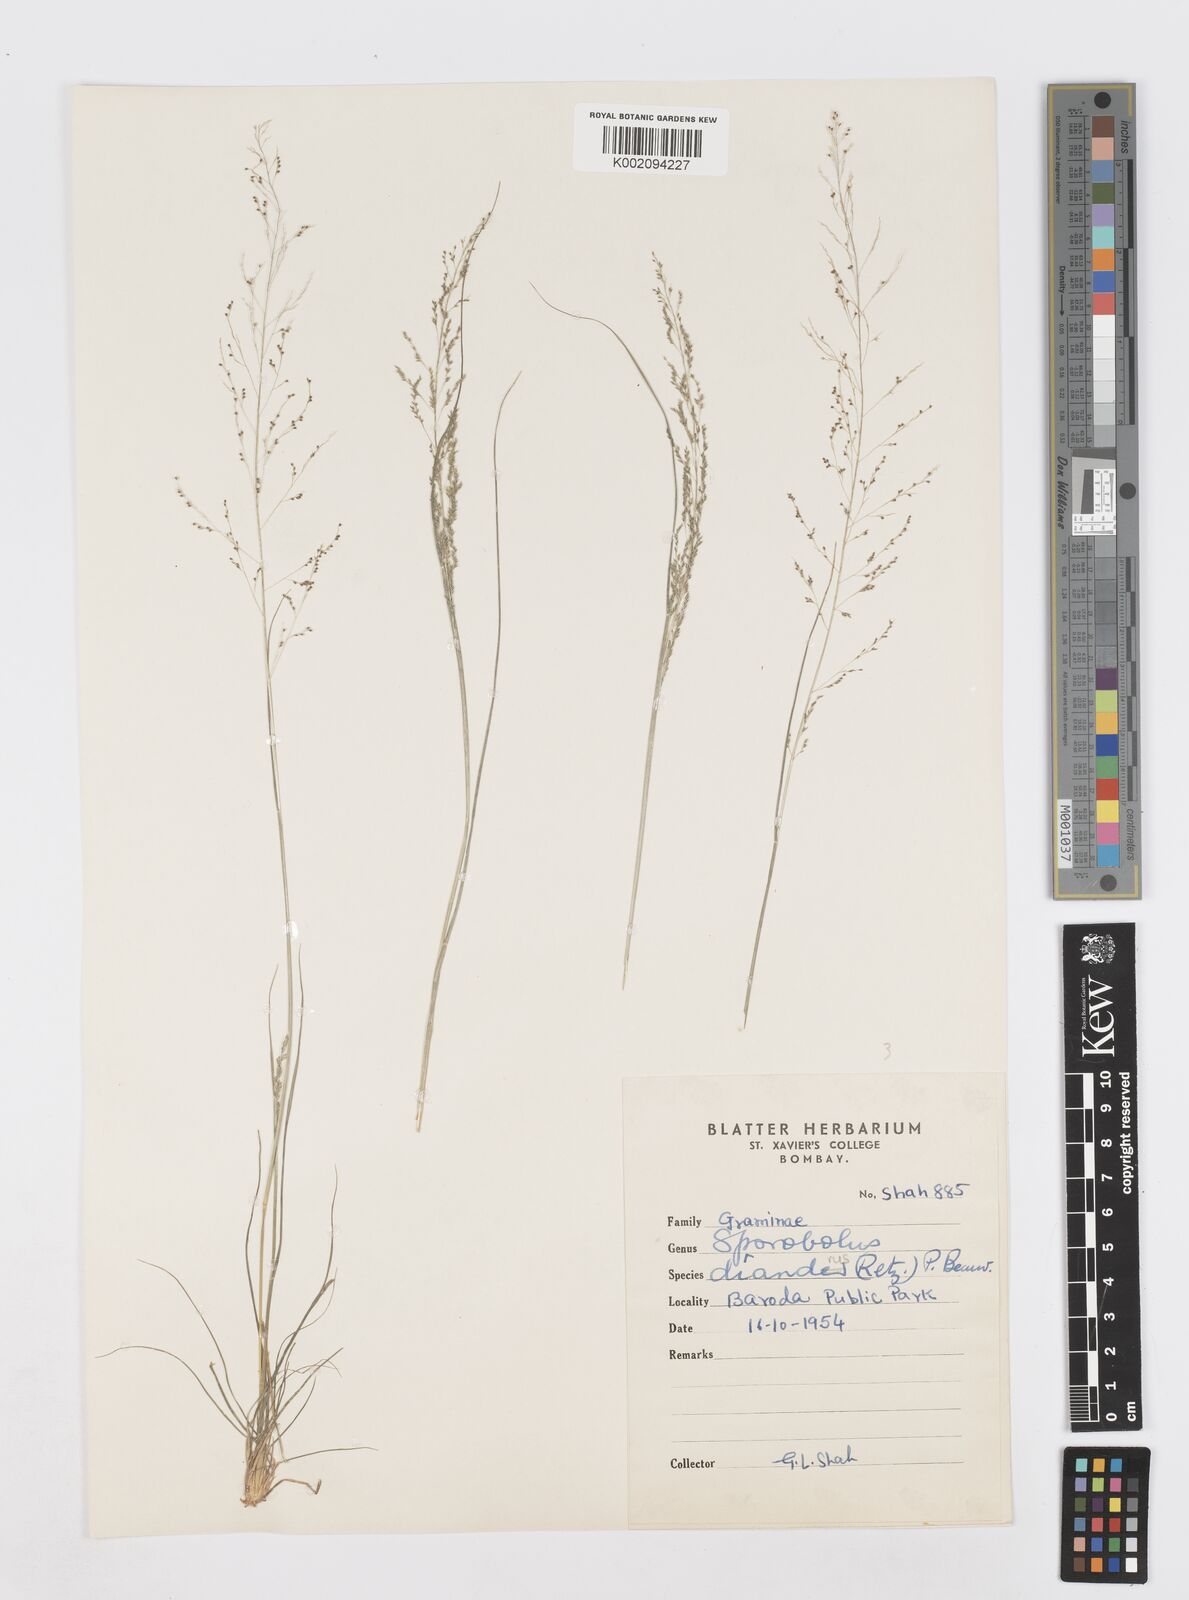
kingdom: Plantae
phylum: Tracheophyta
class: Liliopsida
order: Poales
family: Poaceae
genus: Sporobolus
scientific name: Sporobolus diandrus
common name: Tussock dropseed
